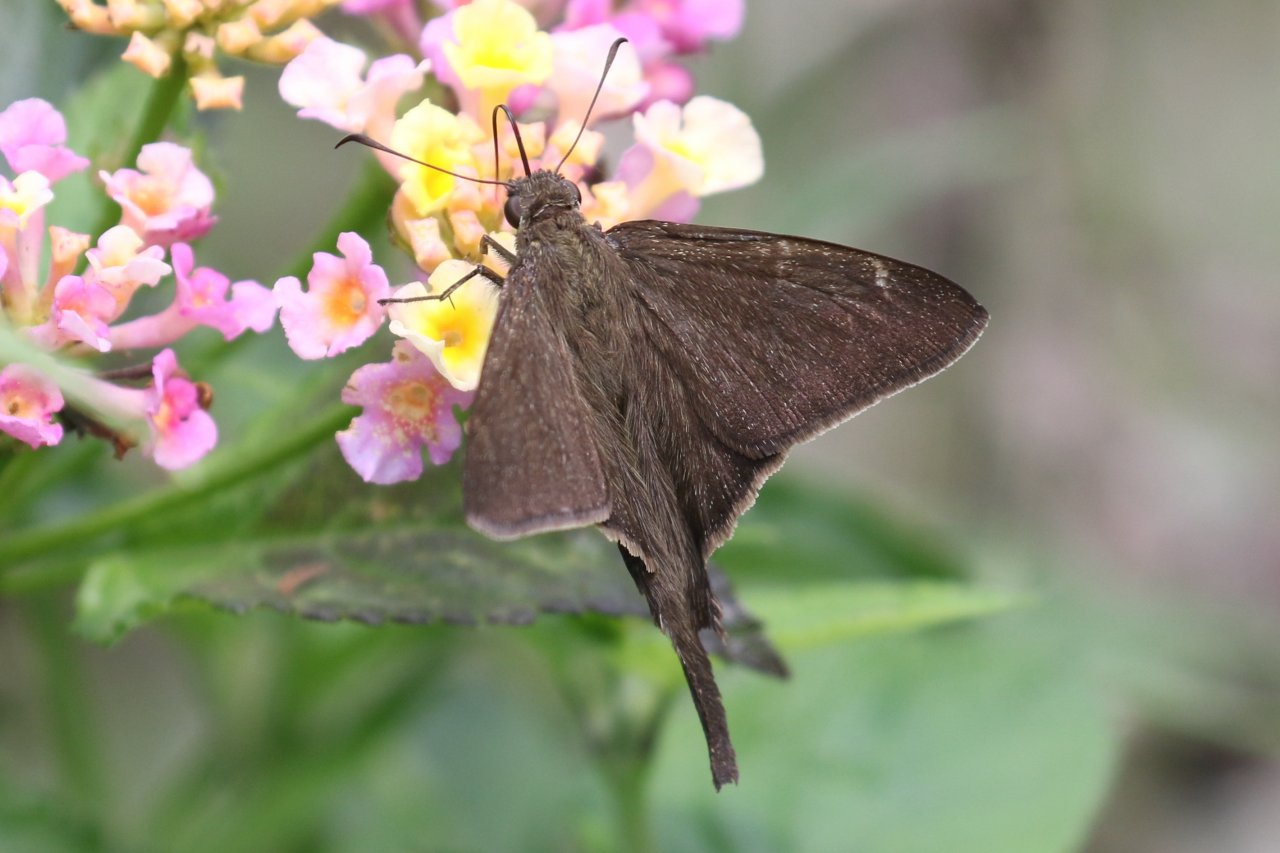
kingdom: Animalia
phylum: Arthropoda
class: Insecta
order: Lepidoptera
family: Hesperiidae
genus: Urbanus
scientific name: Urbanus procne
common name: Brown Longtail
